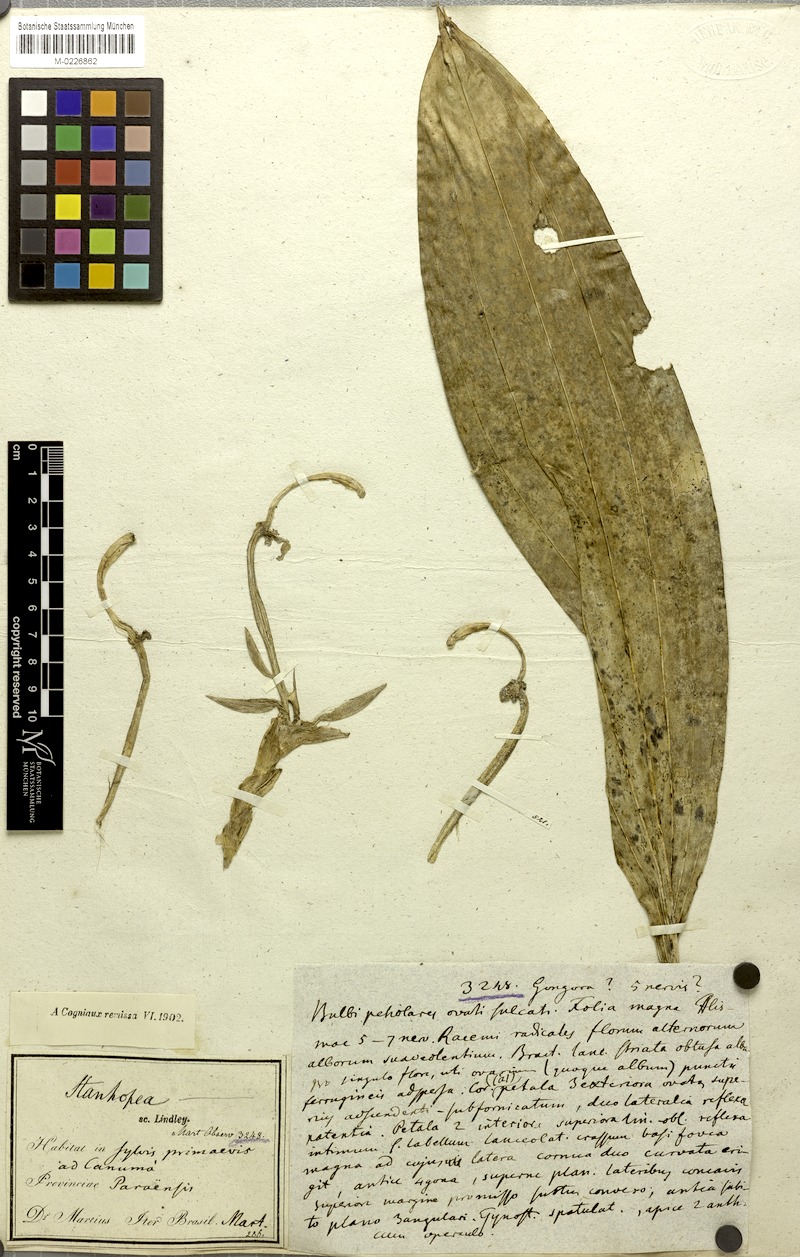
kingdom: Plantae
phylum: Tracheophyta
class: Liliopsida
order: Asparagales
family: Orchidaceae
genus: Stanhopea
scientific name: Stanhopea grandiflora
